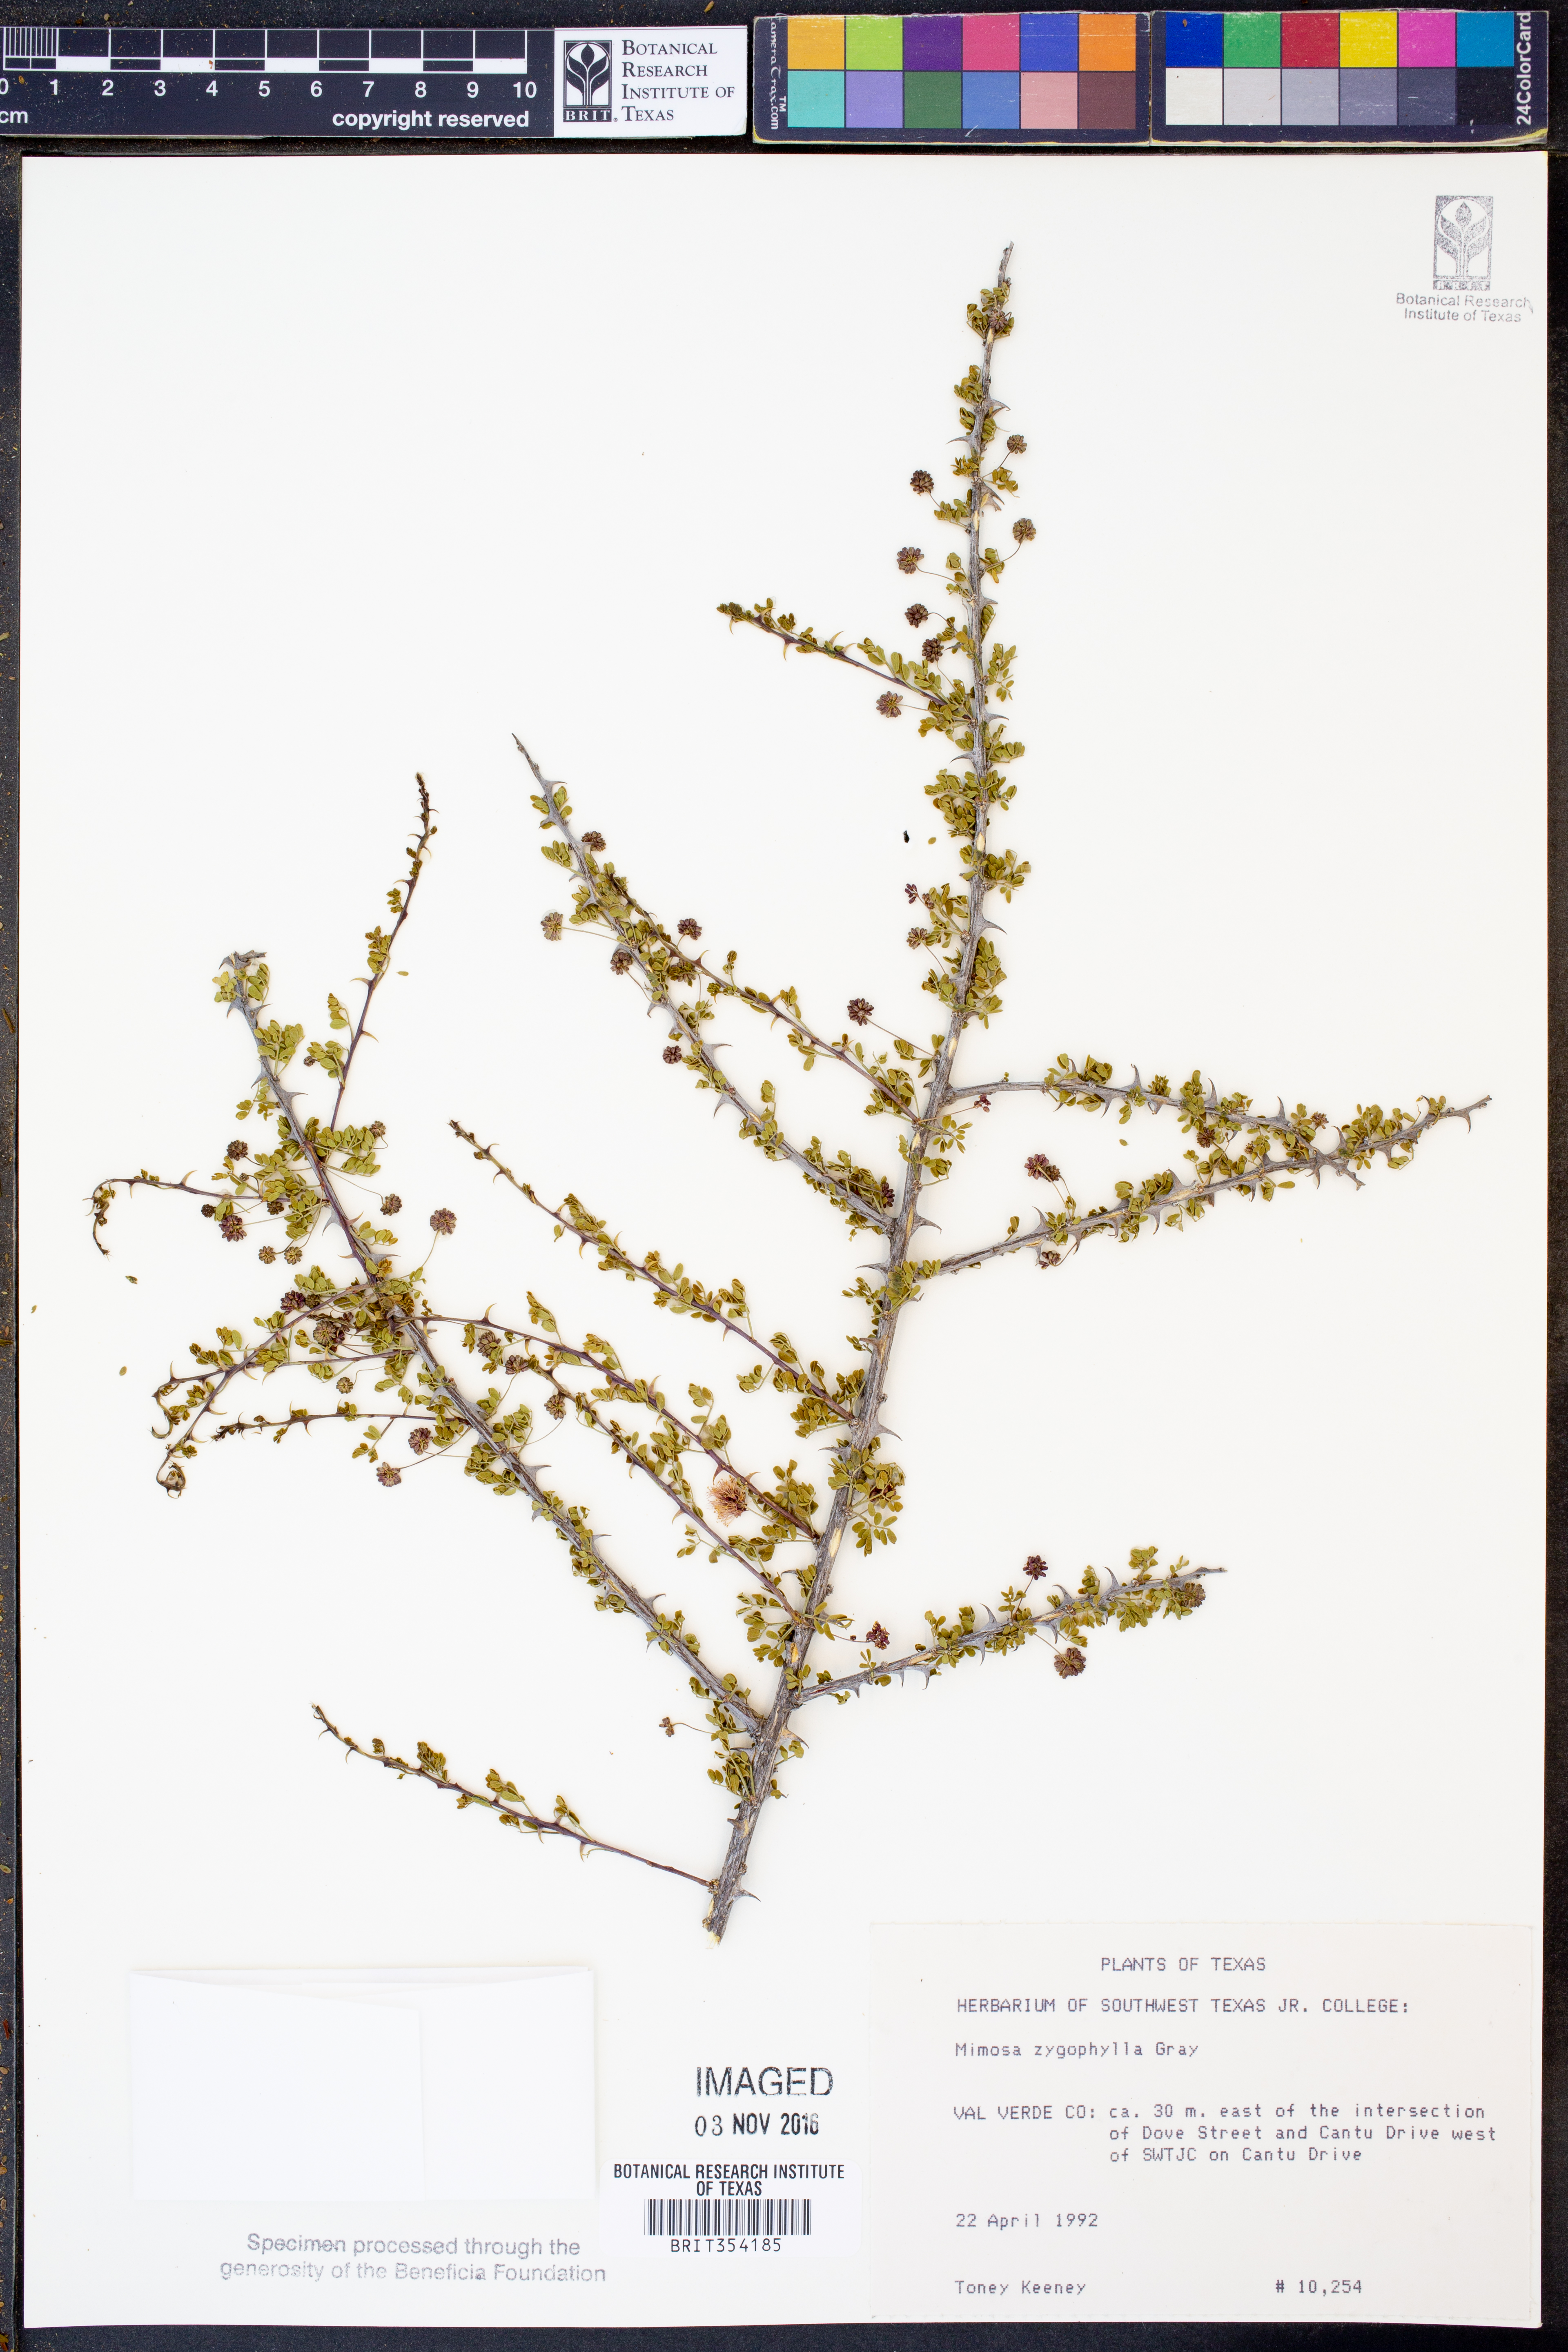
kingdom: Plantae
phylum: Tracheophyta
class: Magnoliopsida
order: Fabales
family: Fabaceae
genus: Mimosa
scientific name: Mimosa zygophylla
